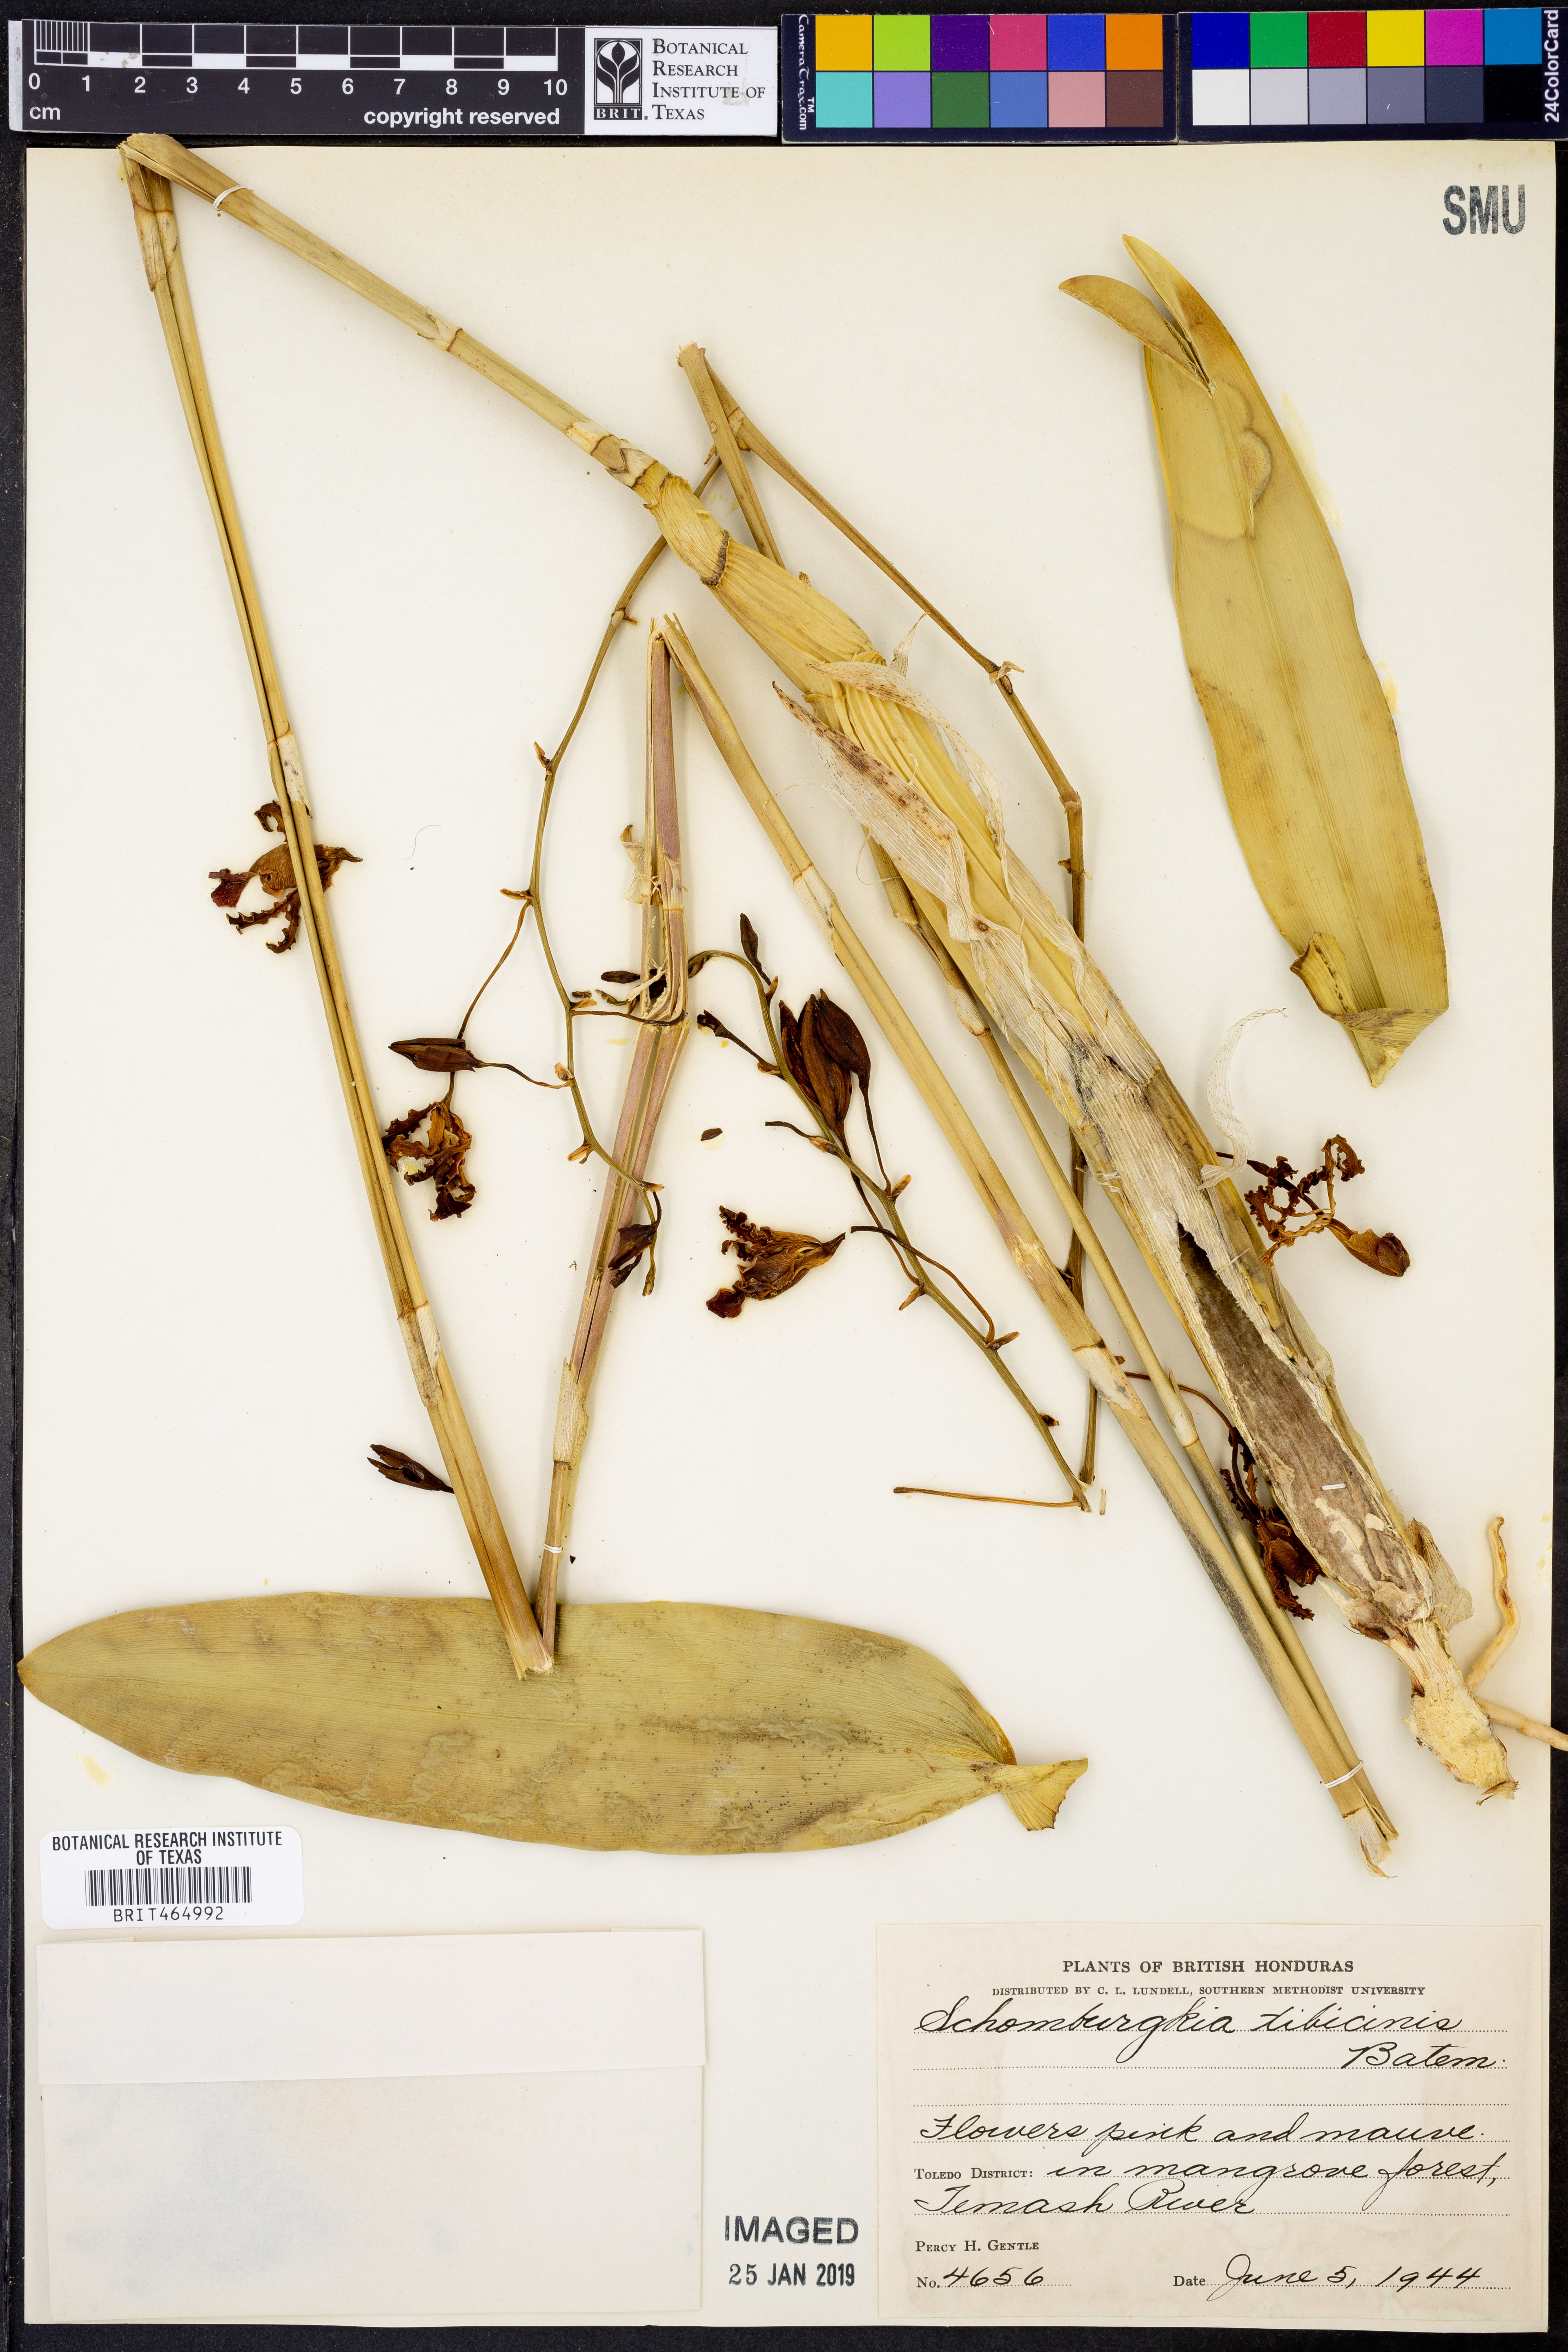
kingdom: Plantae
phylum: Tracheophyta
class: Liliopsida
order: Asparagales
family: Orchidaceae
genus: Myrmecophila
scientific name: Myrmecophila tibicinis
